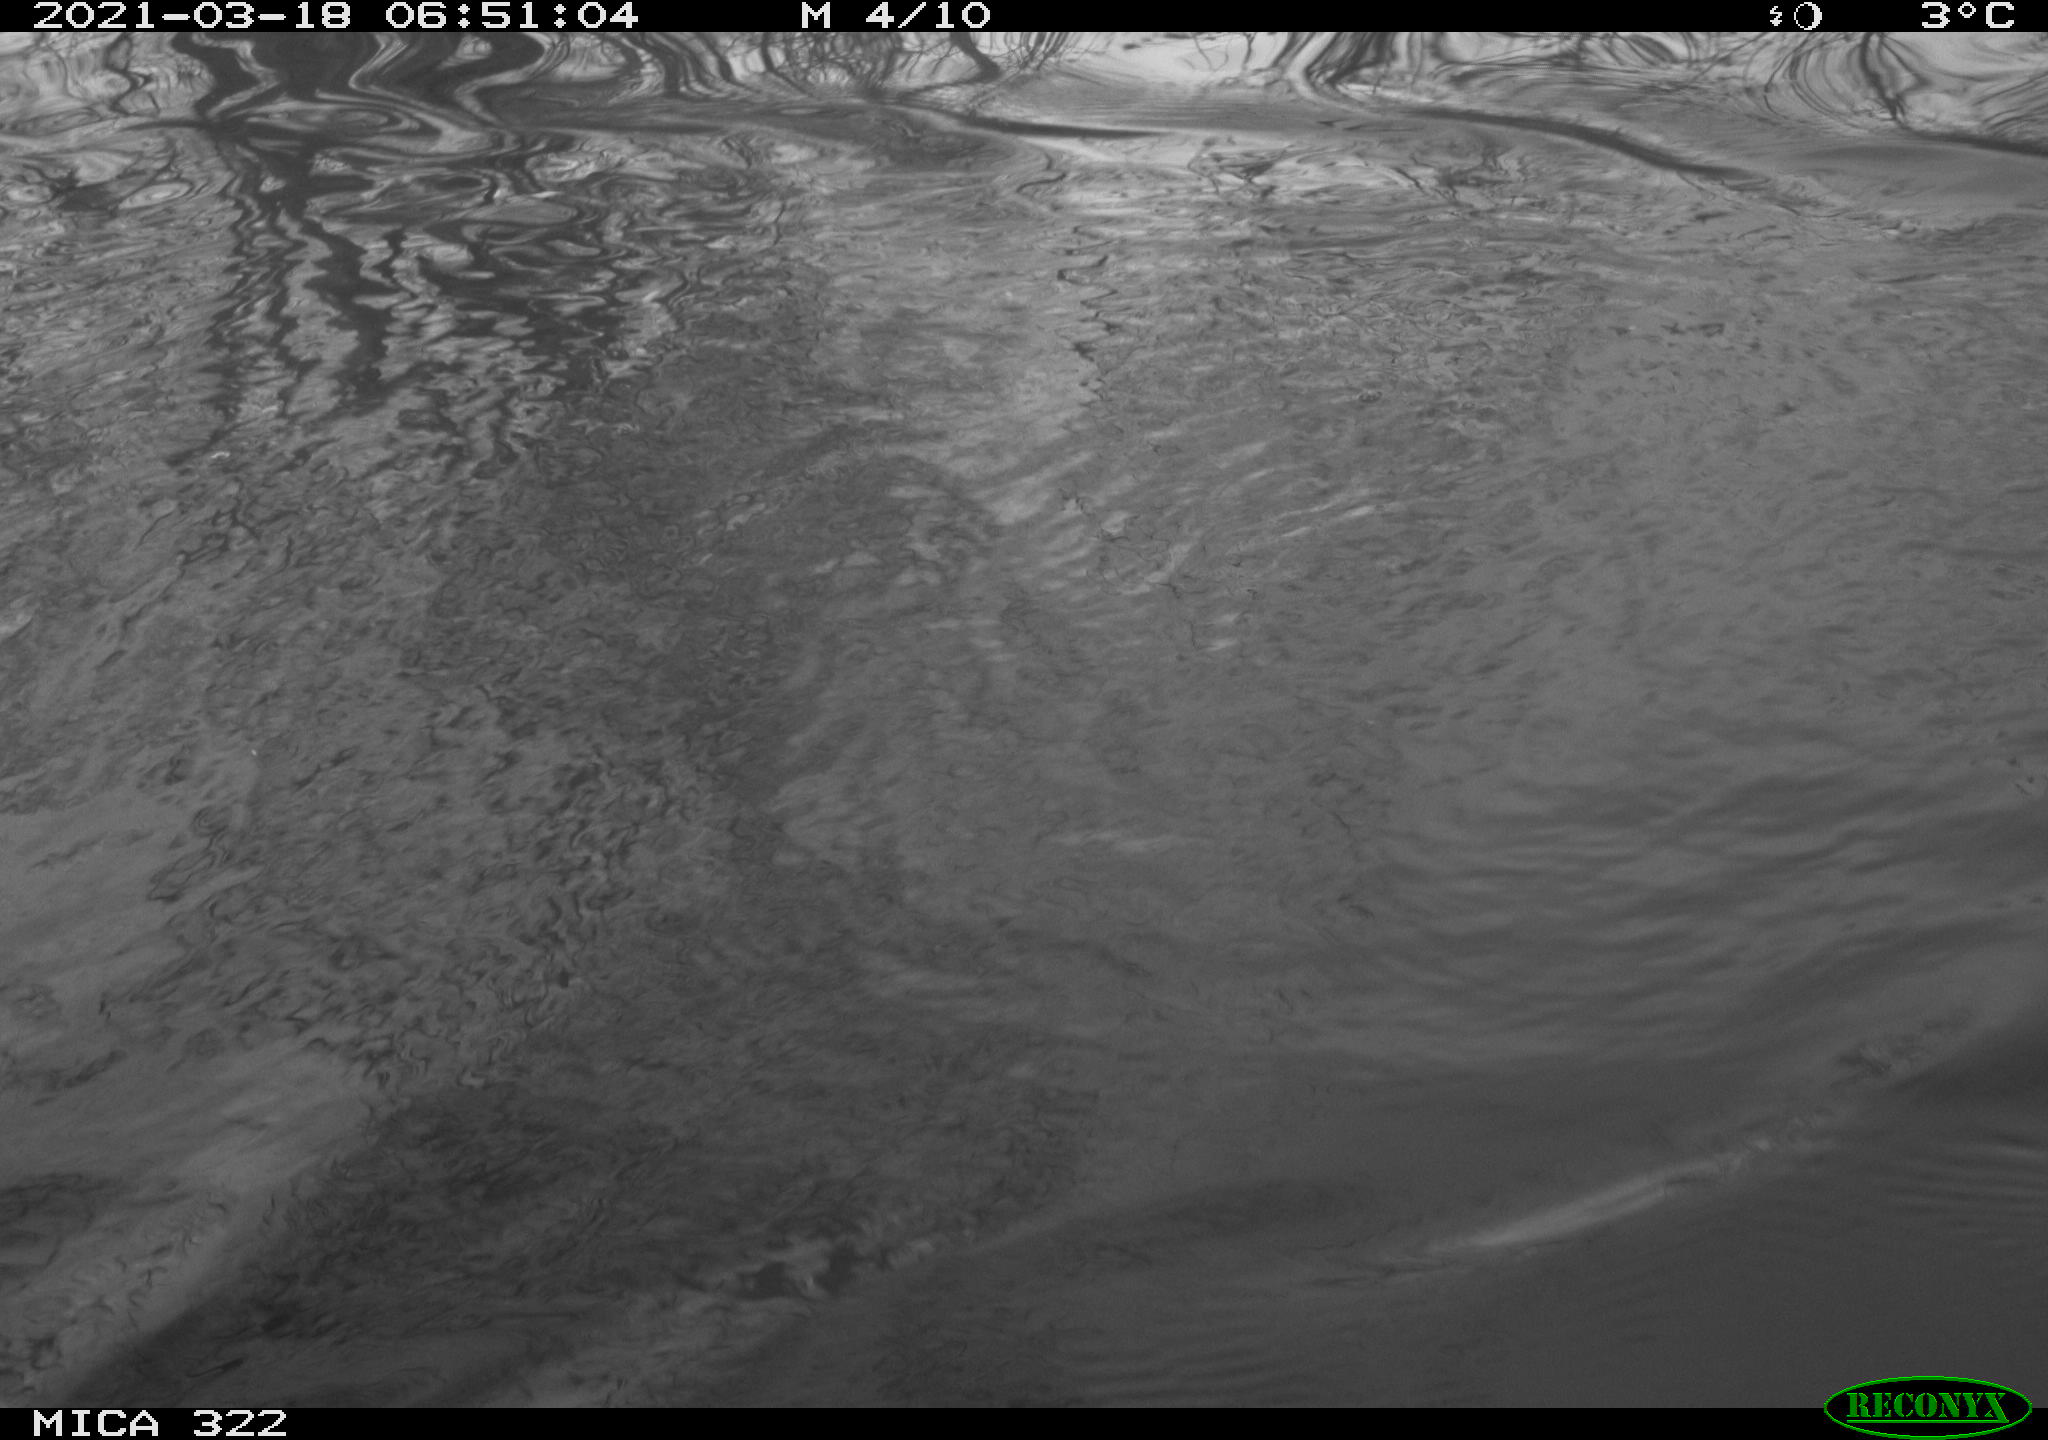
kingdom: Animalia
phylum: Chordata
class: Aves
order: Anseriformes
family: Anatidae
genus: Anas
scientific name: Anas platyrhynchos
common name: Mallard
